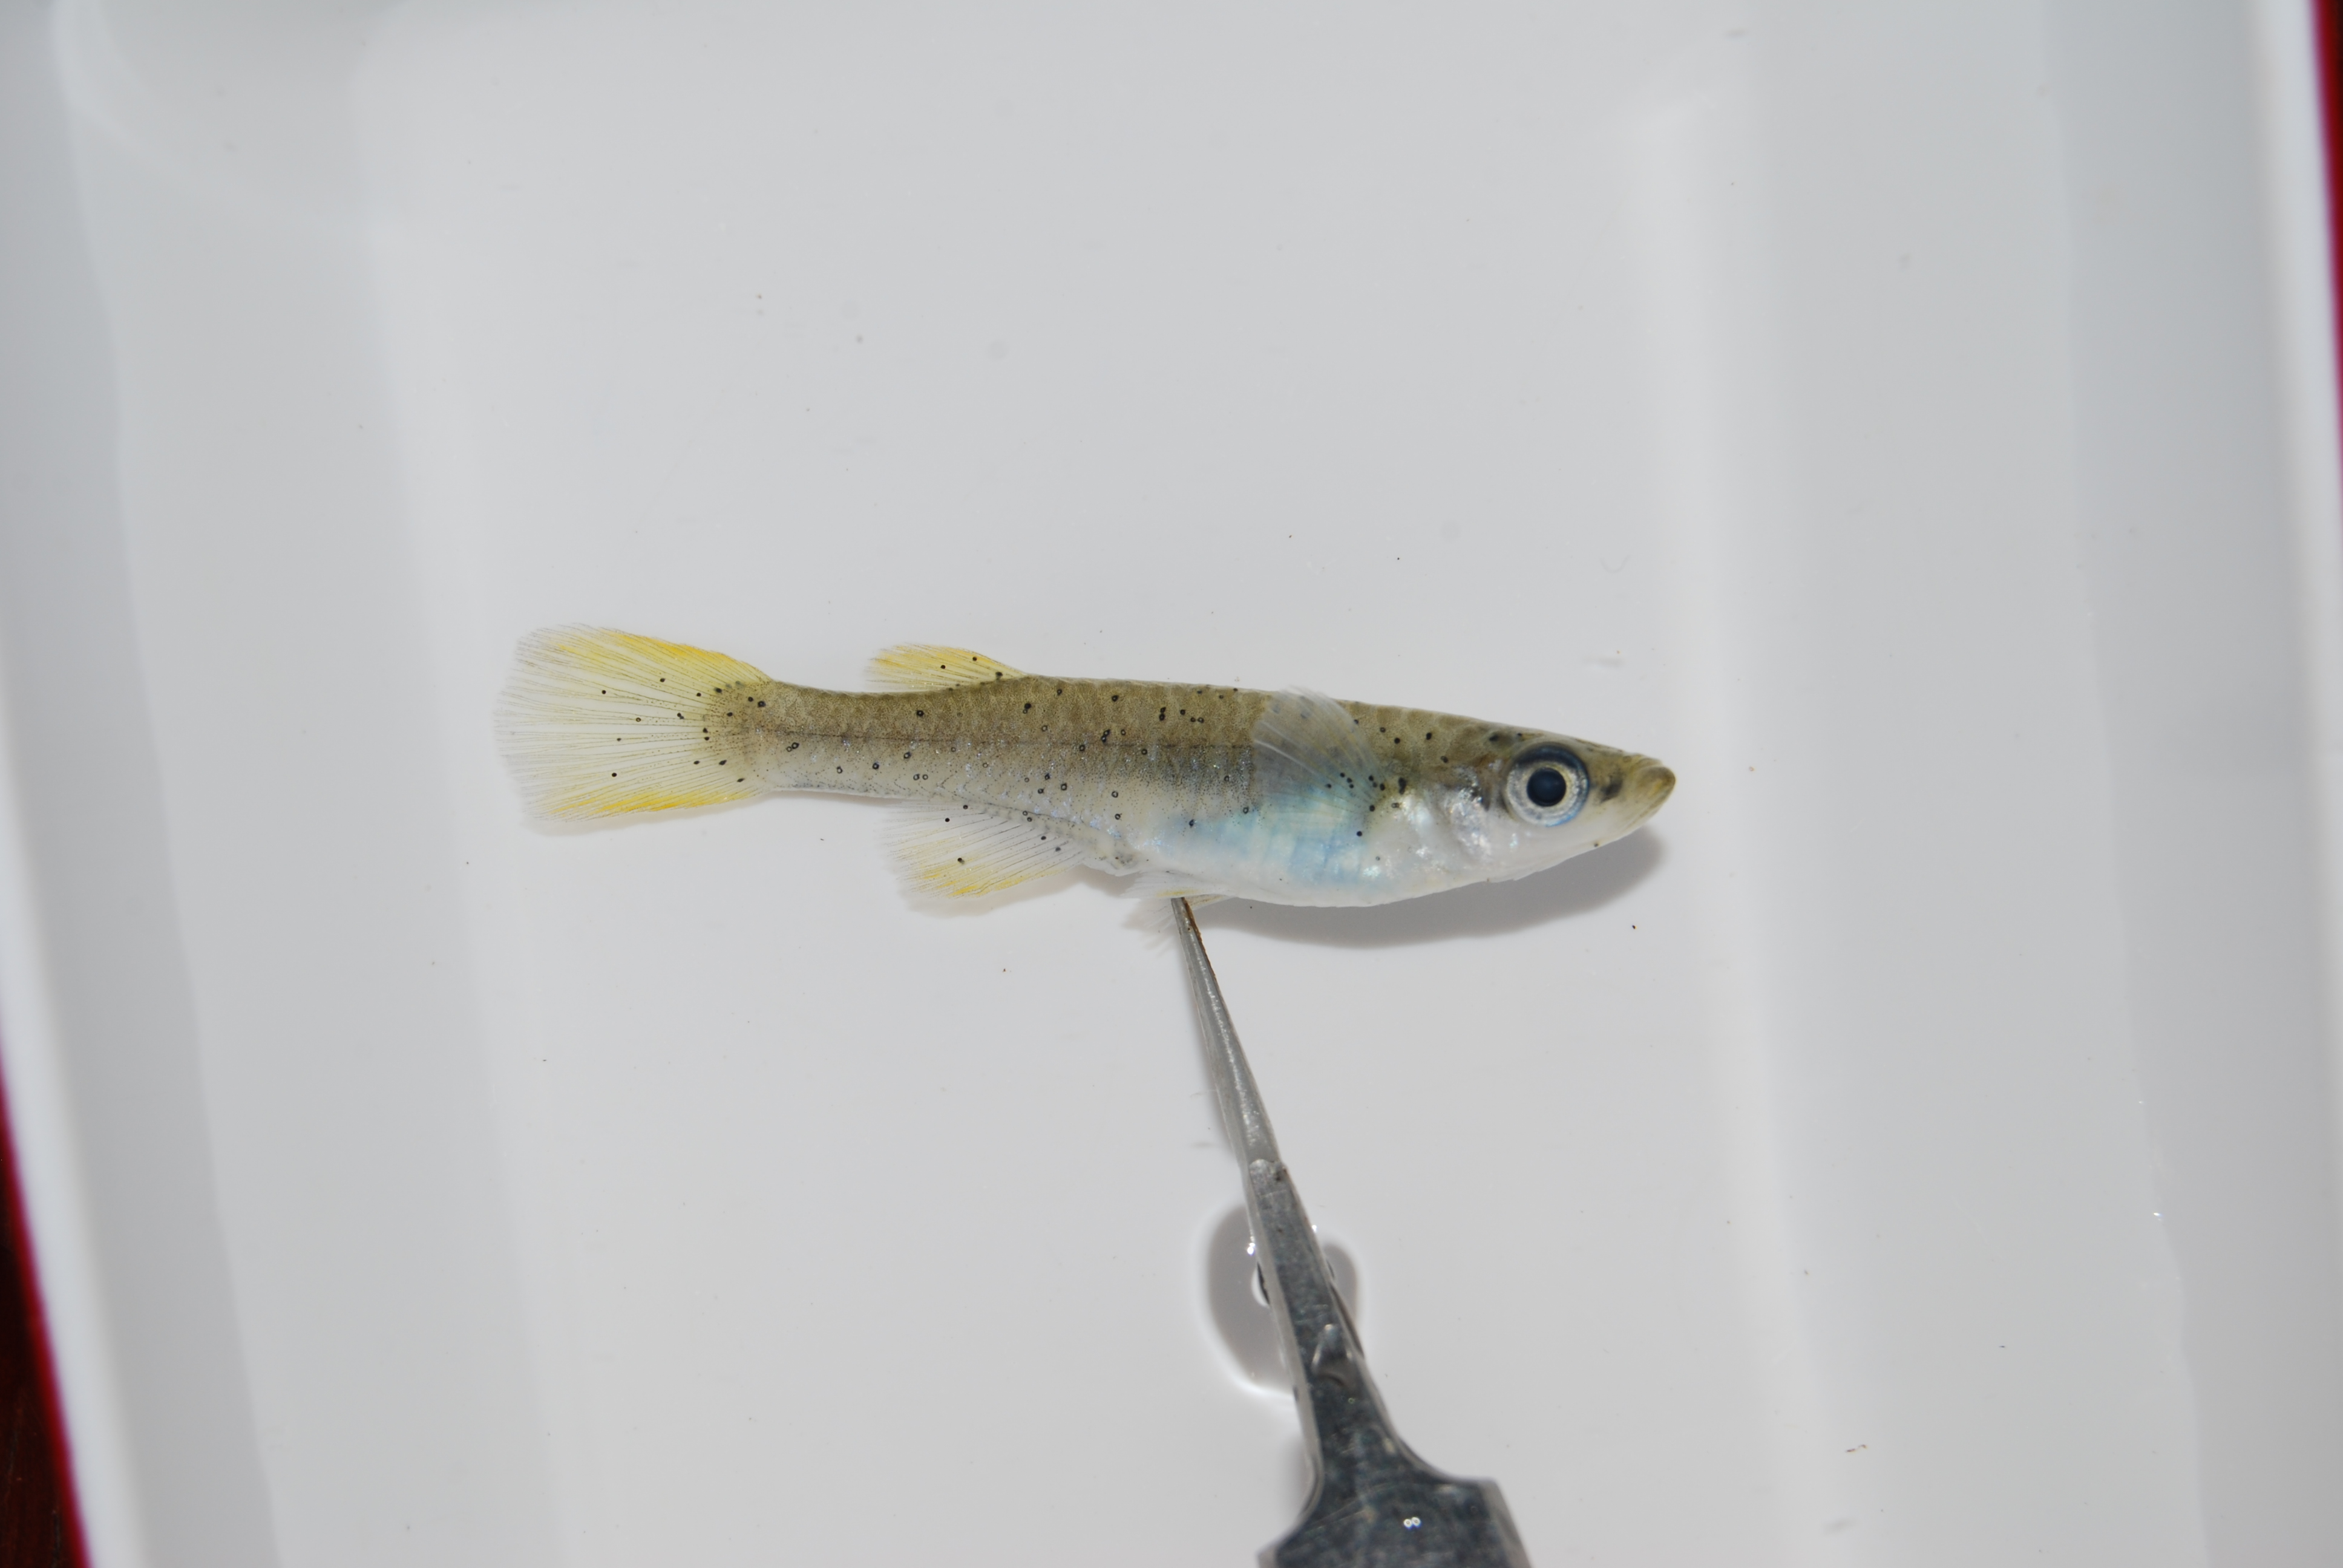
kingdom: Animalia
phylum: Chordata
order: Cyprinodontiformes
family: Poeciliidae
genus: Micropanchax
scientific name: Micropanchax johnstoni
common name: Johnston's topminnow
